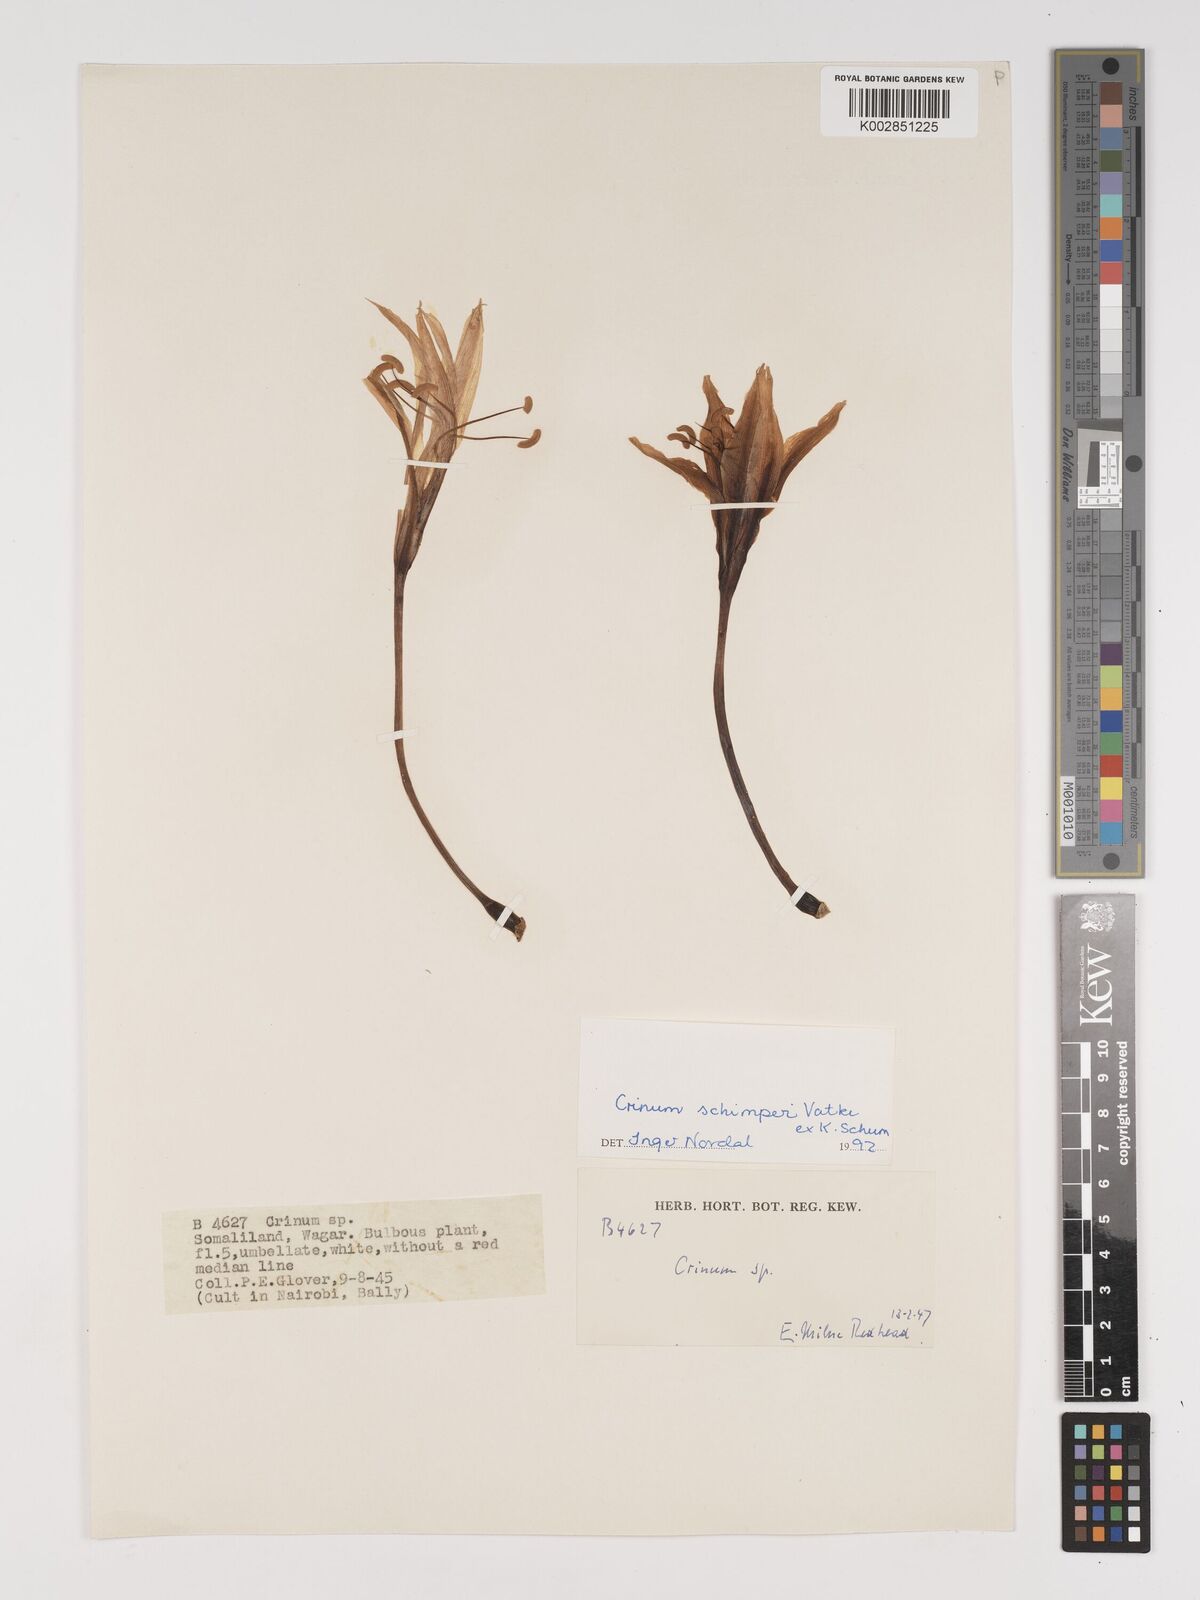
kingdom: Plantae
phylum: Tracheophyta
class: Liliopsida
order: Asparagales
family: Amaryllidaceae
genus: Crinum
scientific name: Crinum abyssinicum
